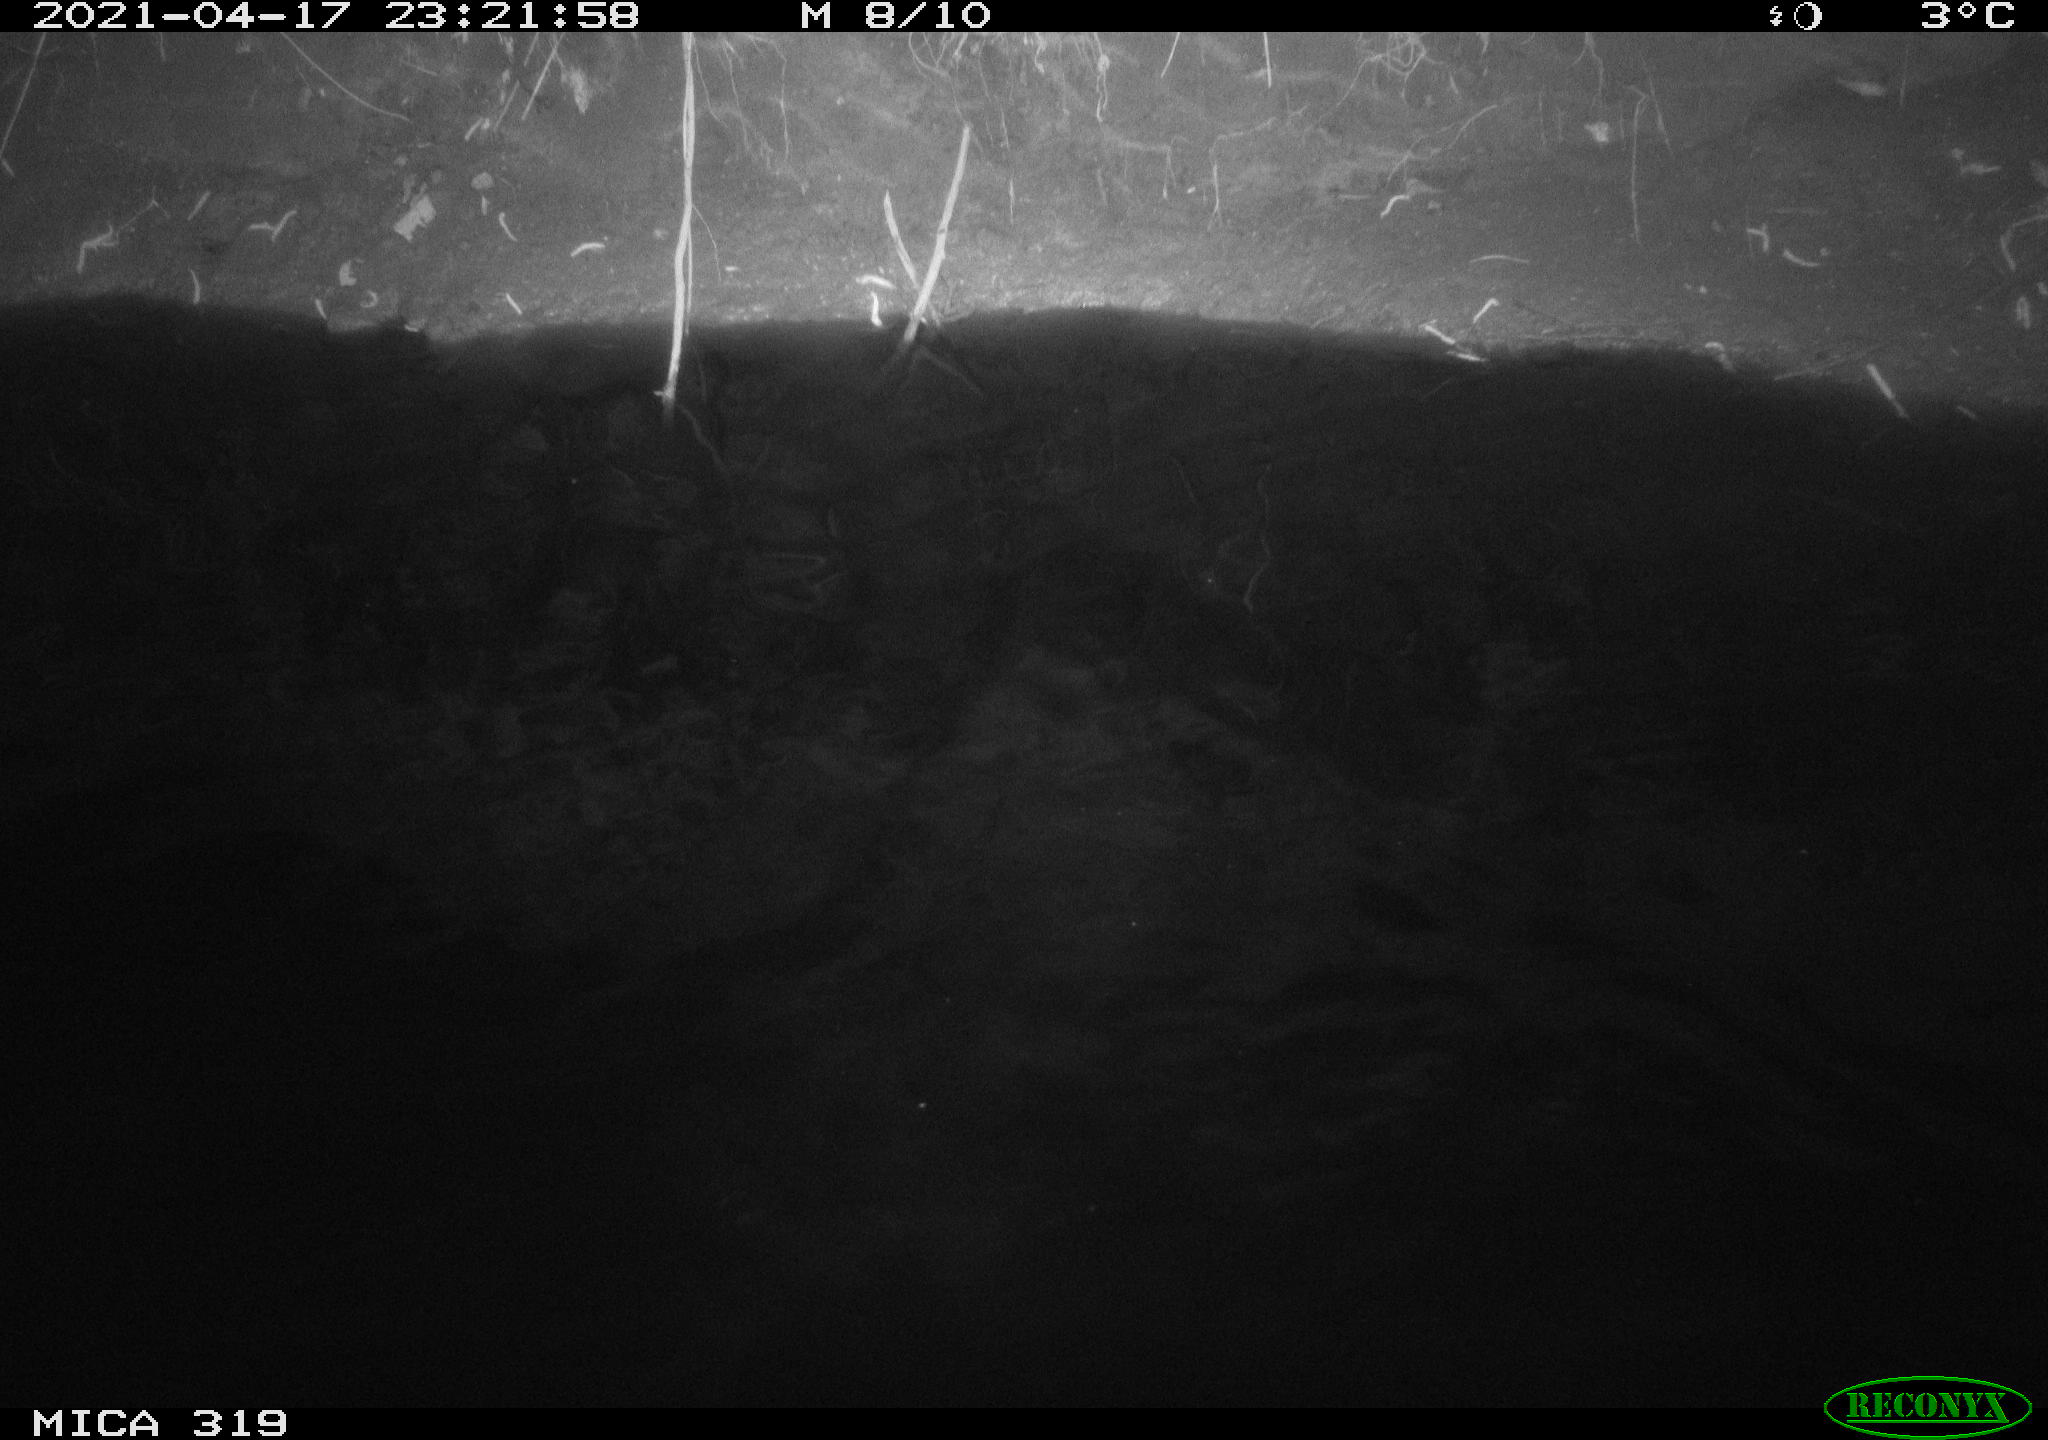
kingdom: Animalia
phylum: Chordata
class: Aves
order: Anseriformes
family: Anatidae
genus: Anas
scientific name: Anas platyrhynchos
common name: Mallard
